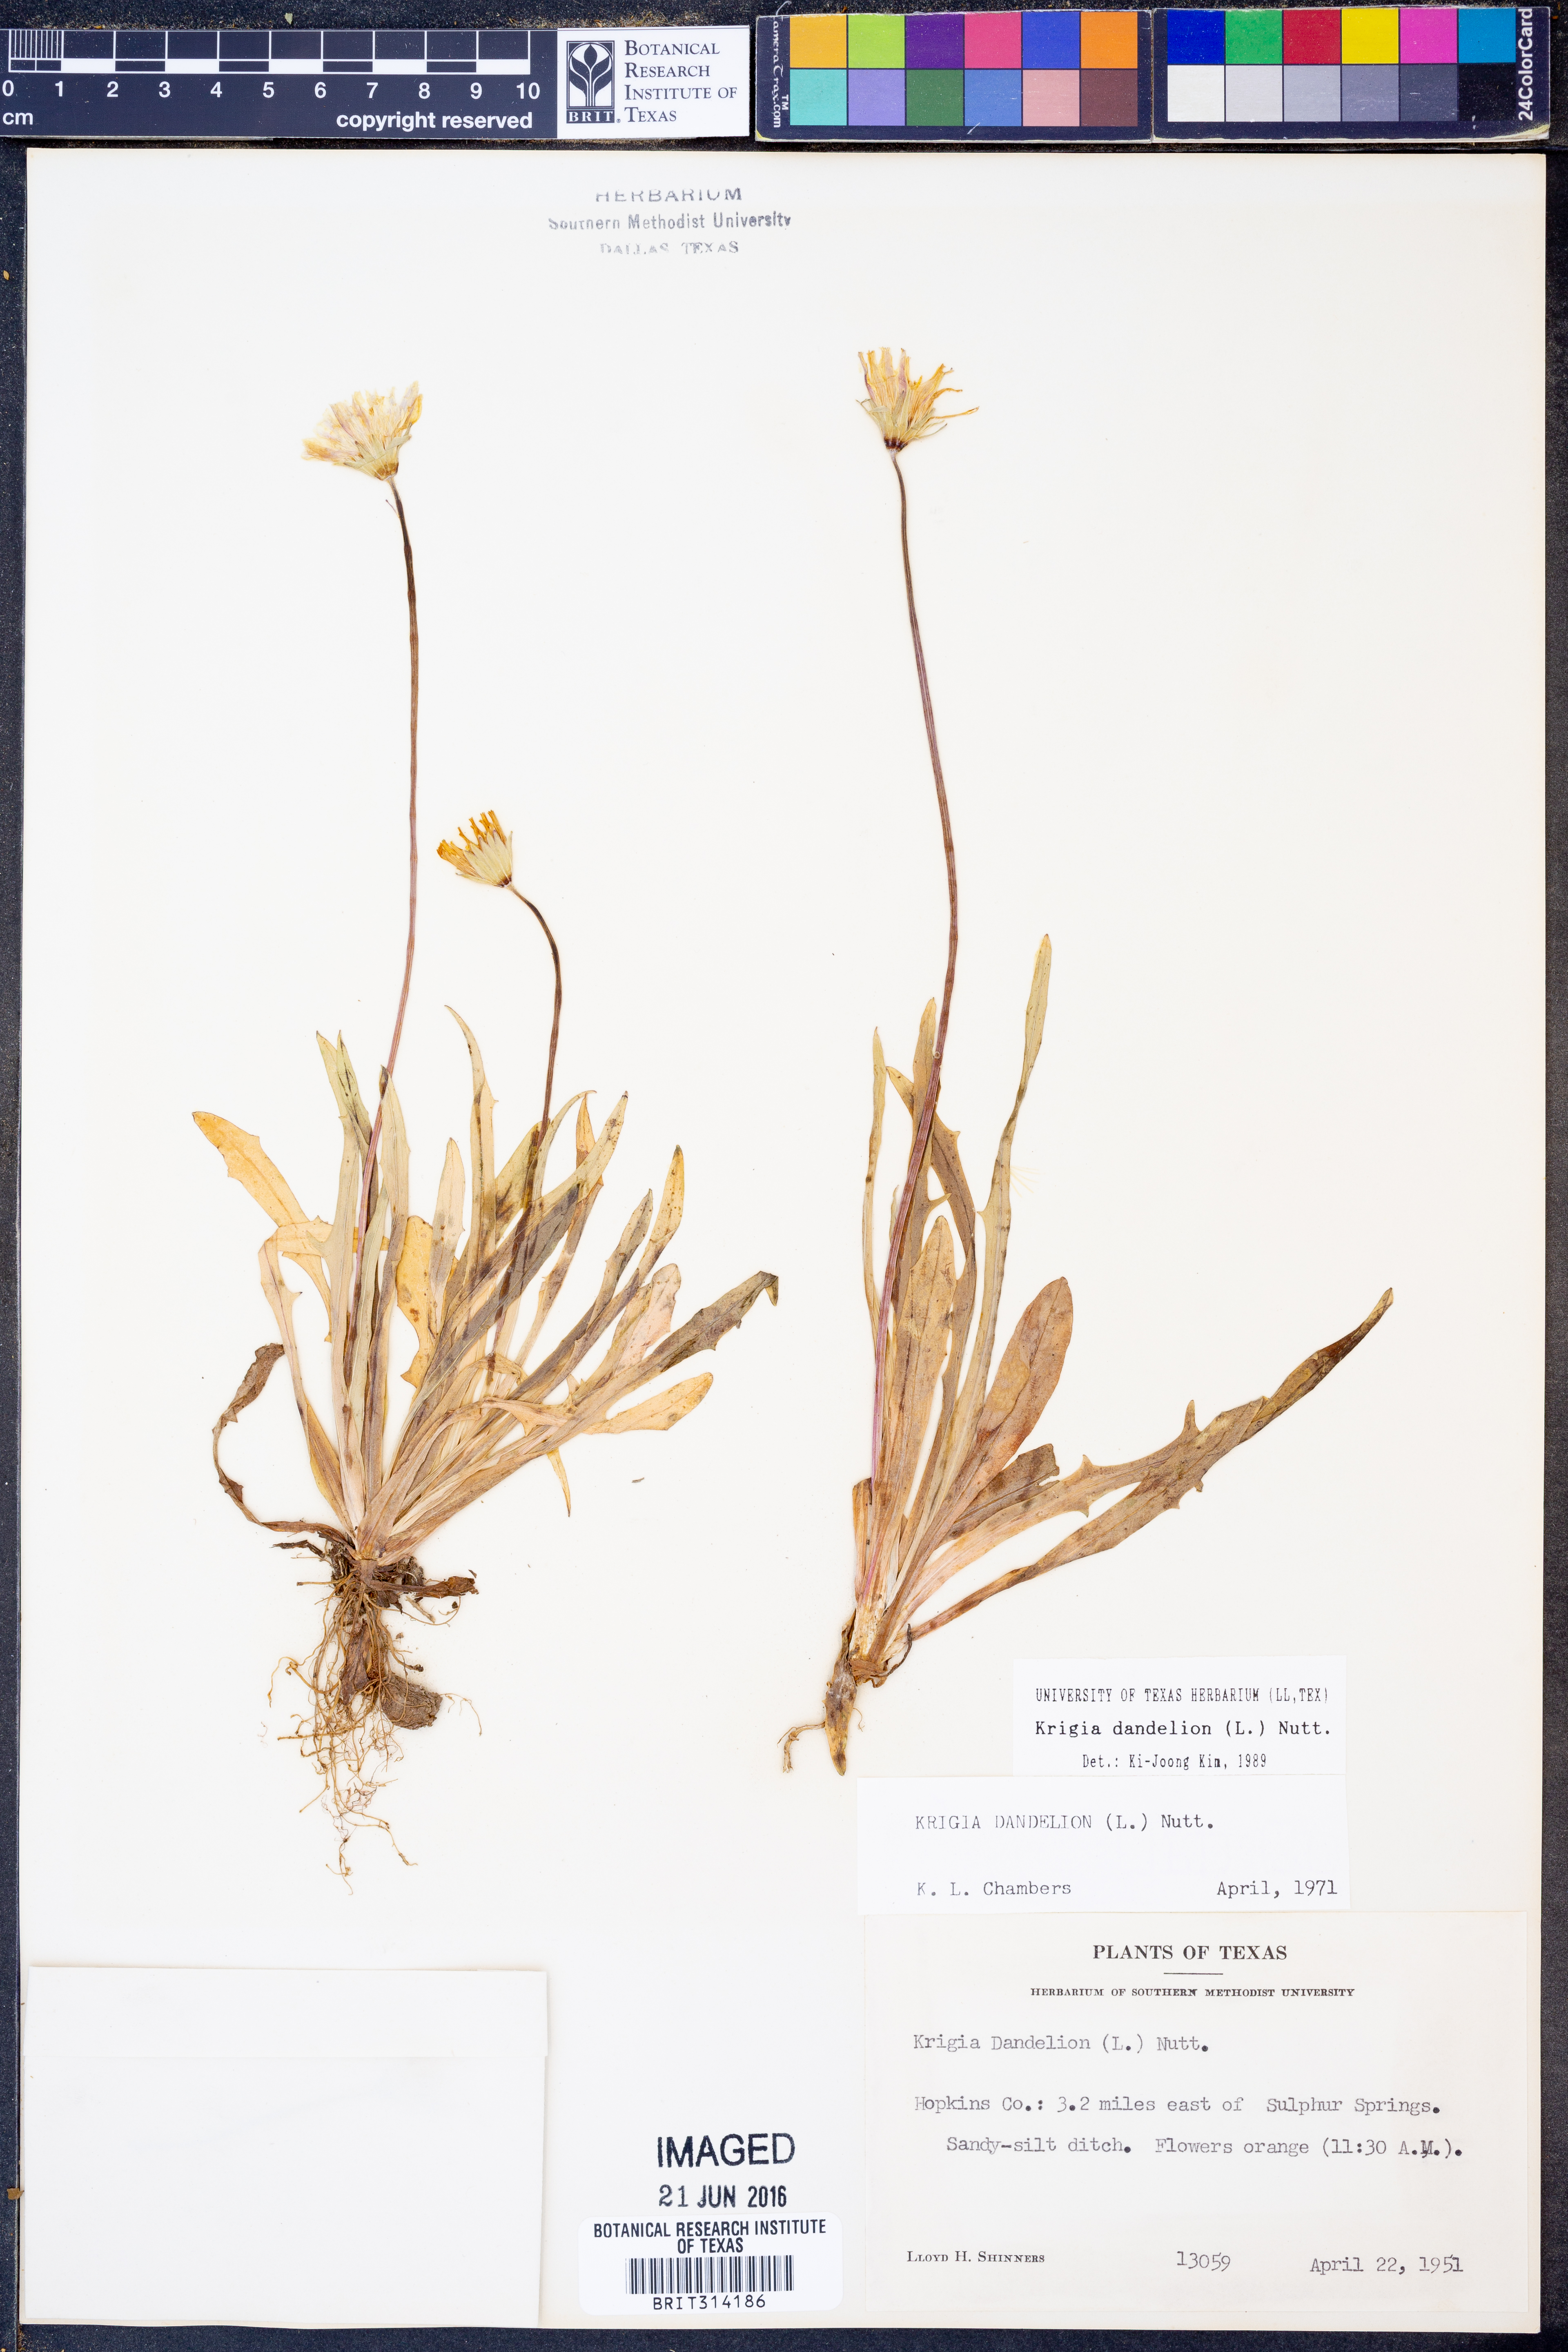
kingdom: Plantae
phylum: Tracheophyta
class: Magnoliopsida
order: Asterales
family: Asteraceae
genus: Krigia
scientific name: Krigia dandelion
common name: Colonial dwarf-dandelion
